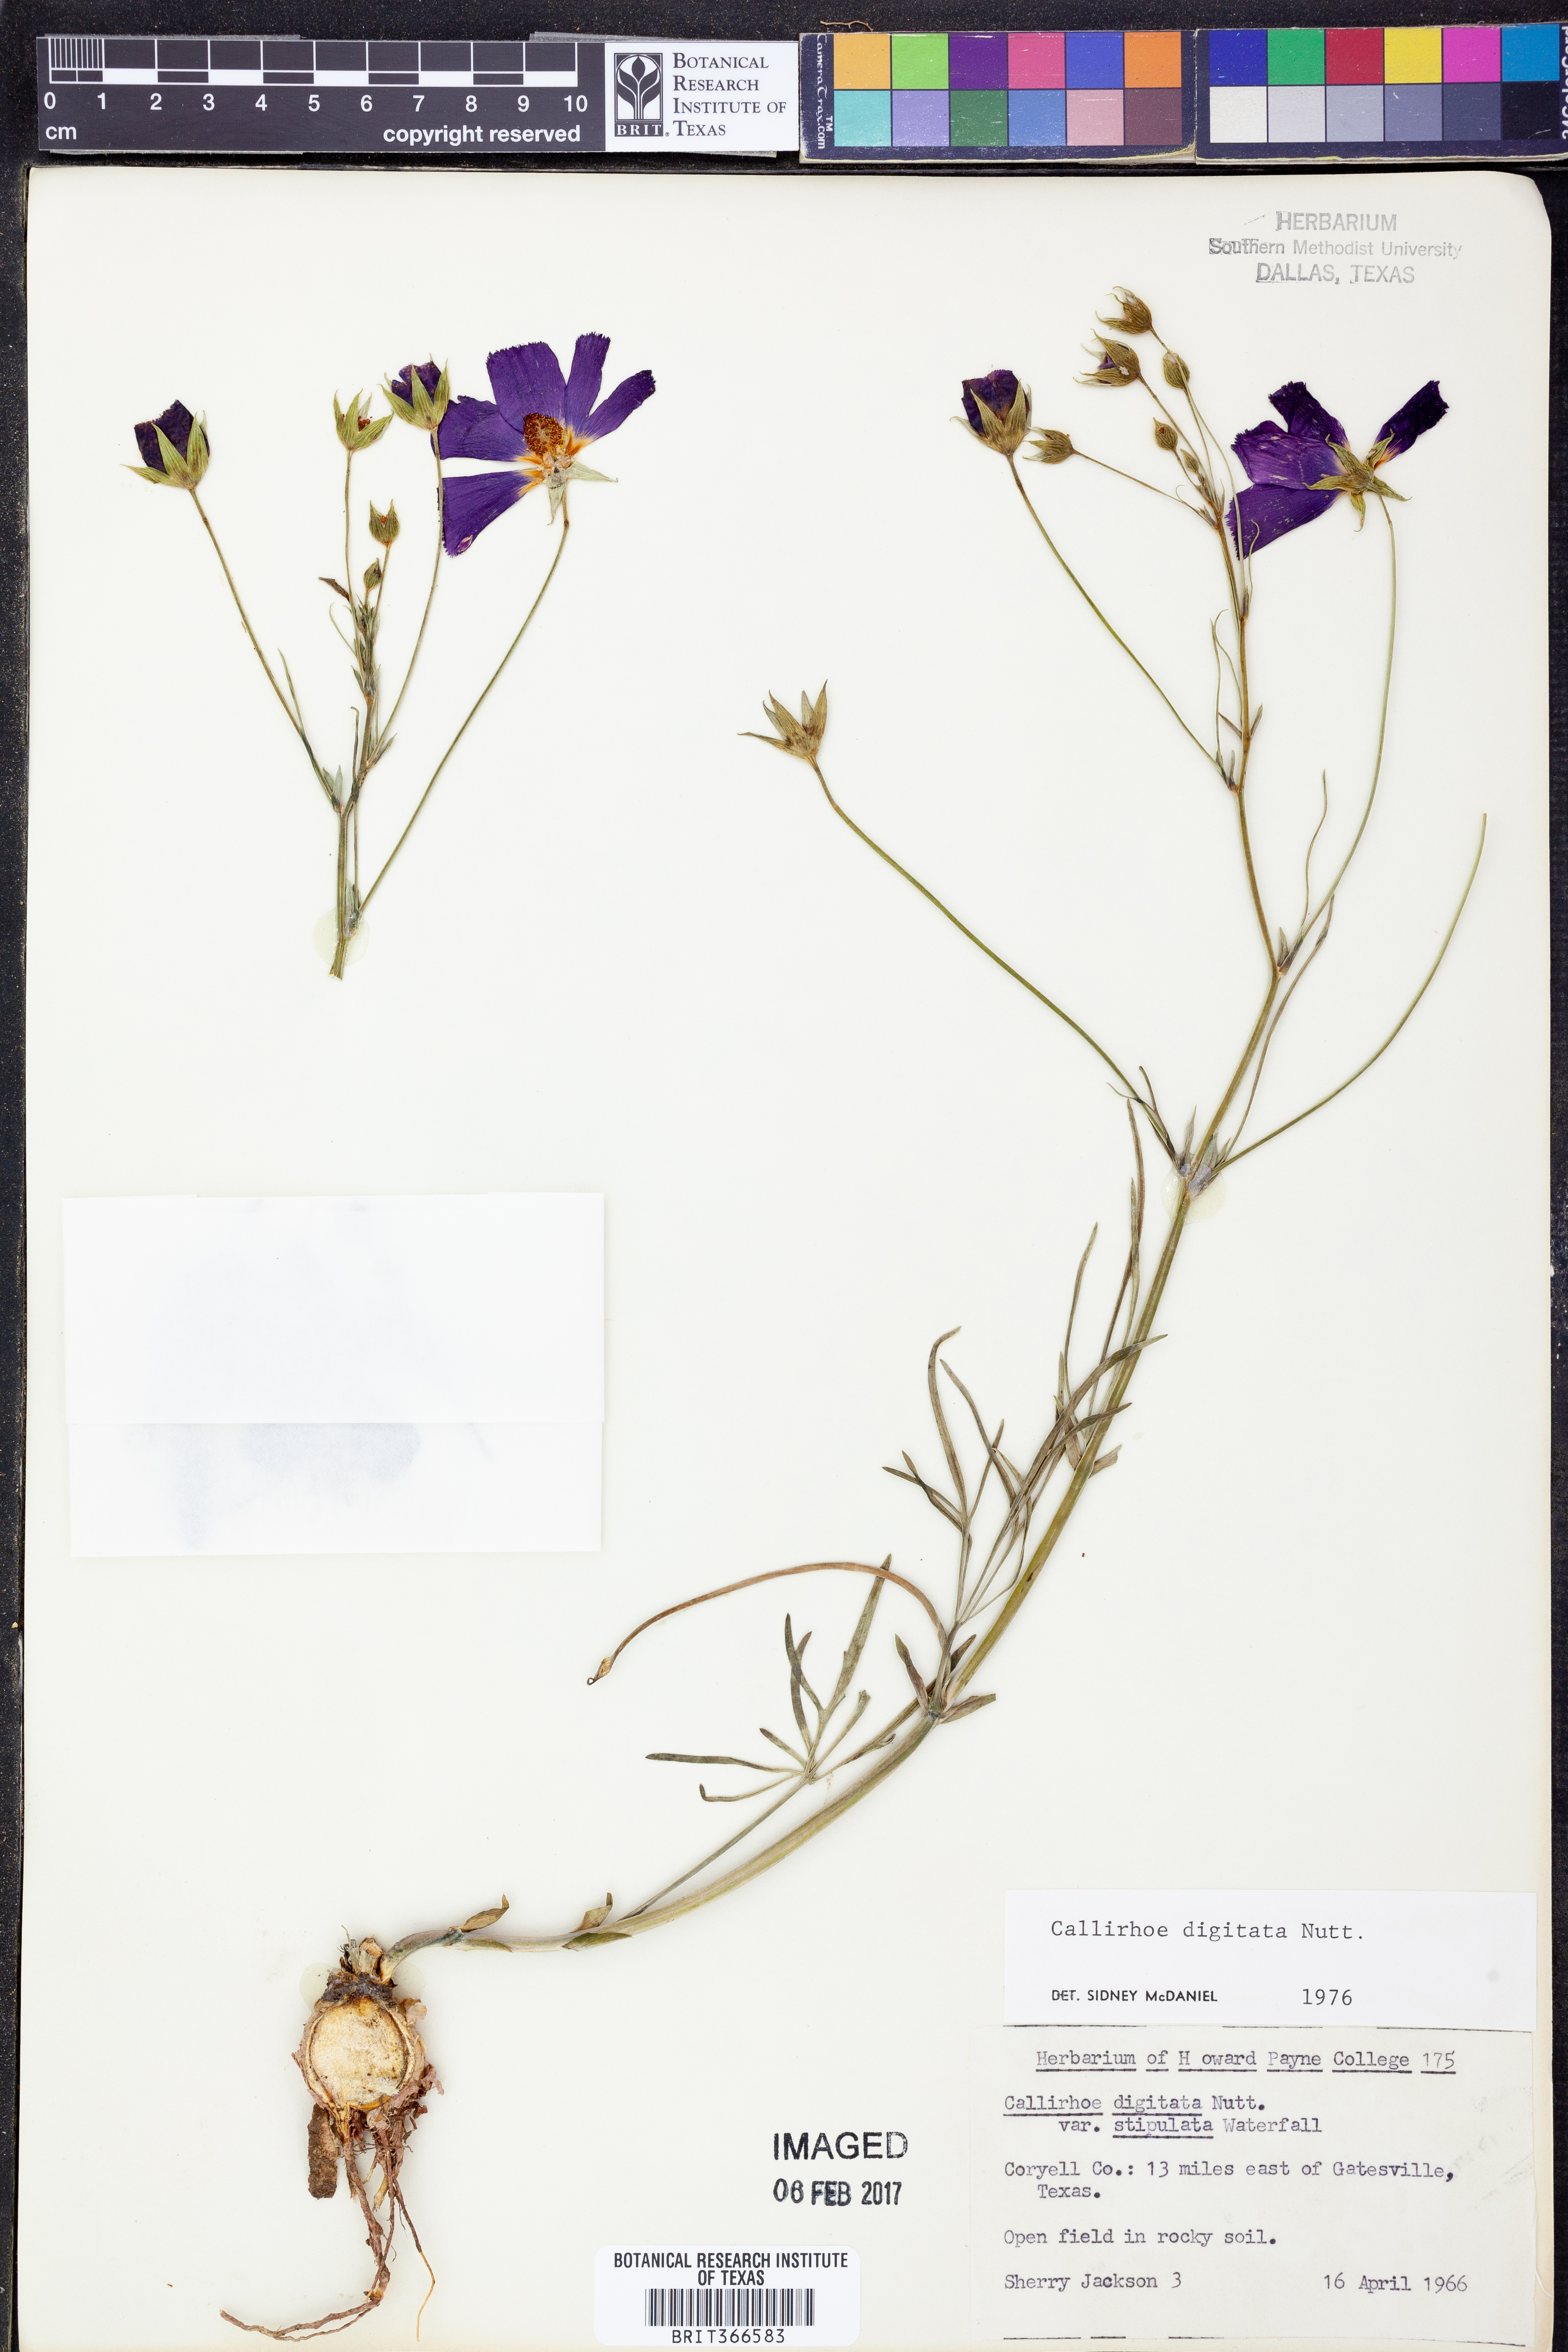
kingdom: Plantae
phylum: Tracheophyta
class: Magnoliopsida
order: Malvales
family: Malvaceae
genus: Callirhoe
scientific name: Callirhoe digitata
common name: Finger poppy-mallow
